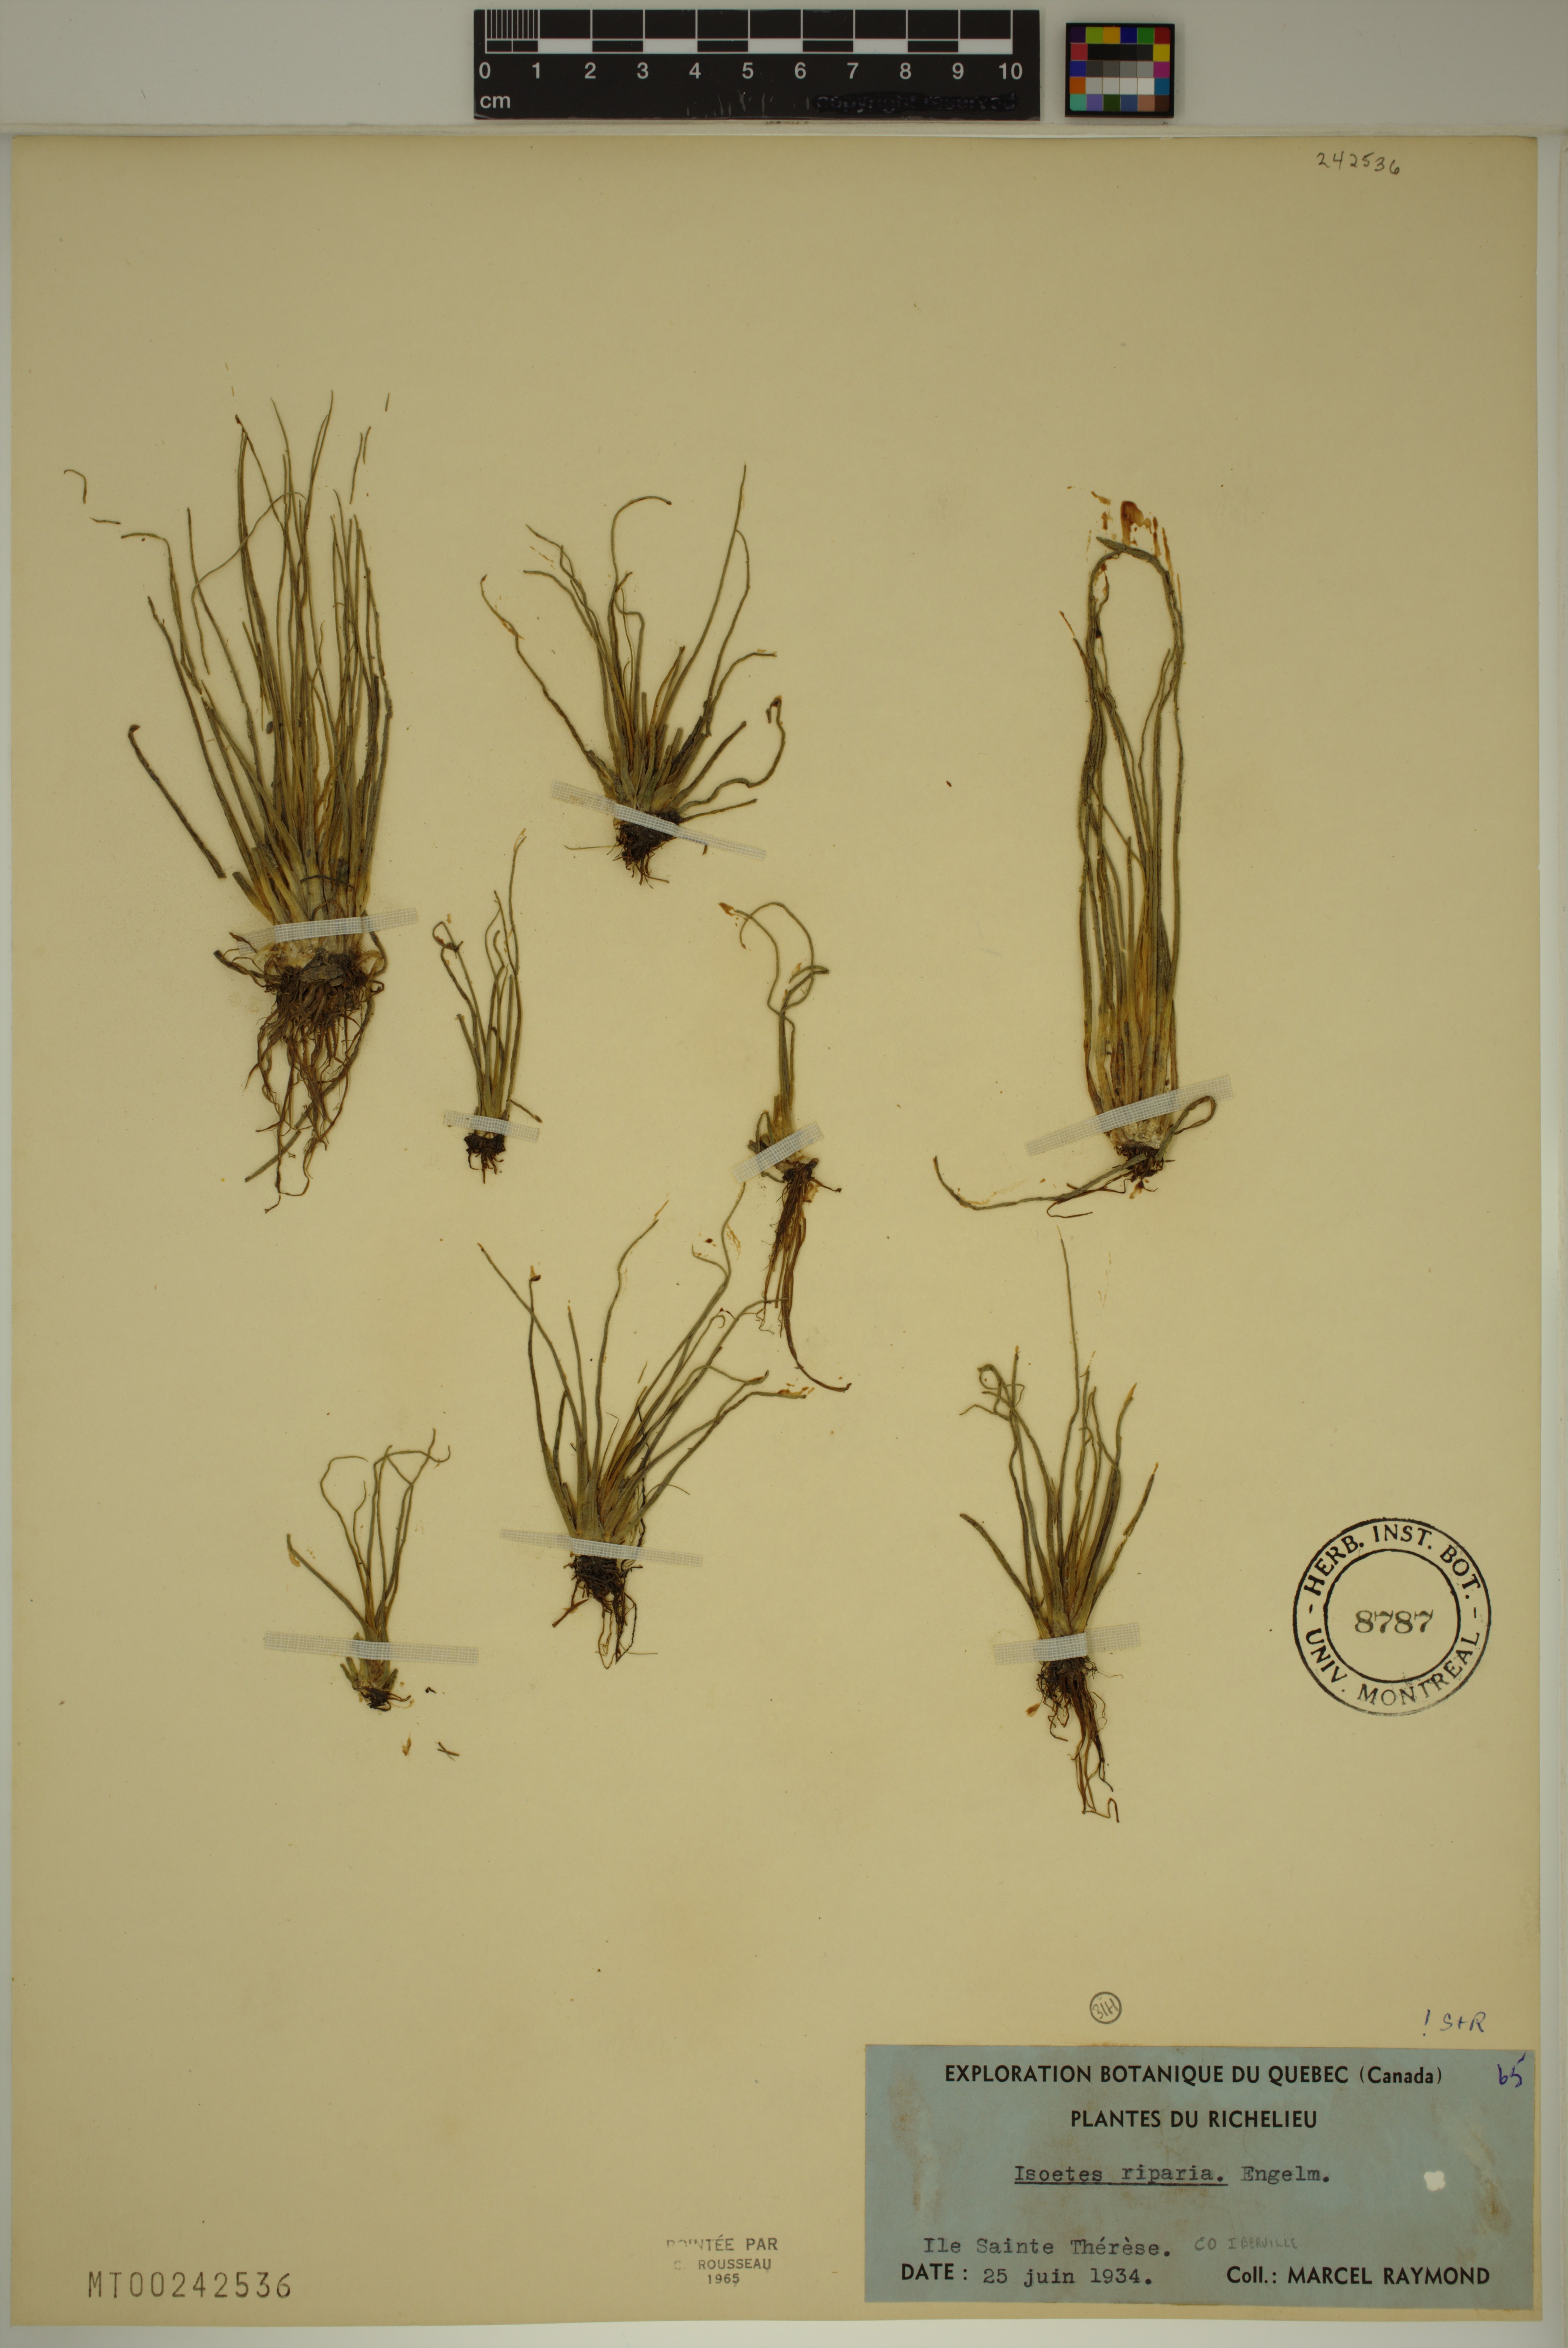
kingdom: Plantae
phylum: Tracheophyta
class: Lycopodiopsida
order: Isoetales
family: Isoetaceae
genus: Isoetes
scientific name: Isoetes septentrionalis
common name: Northern quillwort
